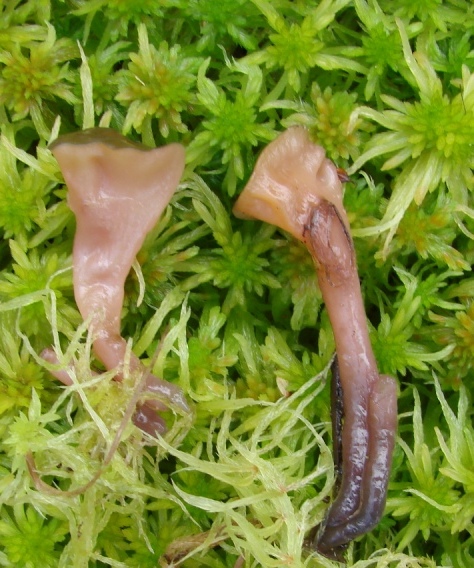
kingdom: Fungi
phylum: Ascomycota
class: Leotiomycetes
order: Helotiales
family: Gelatinodiscaceae
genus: Ascocoryne
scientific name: Ascocoryne turficola
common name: tørve-sejskive
